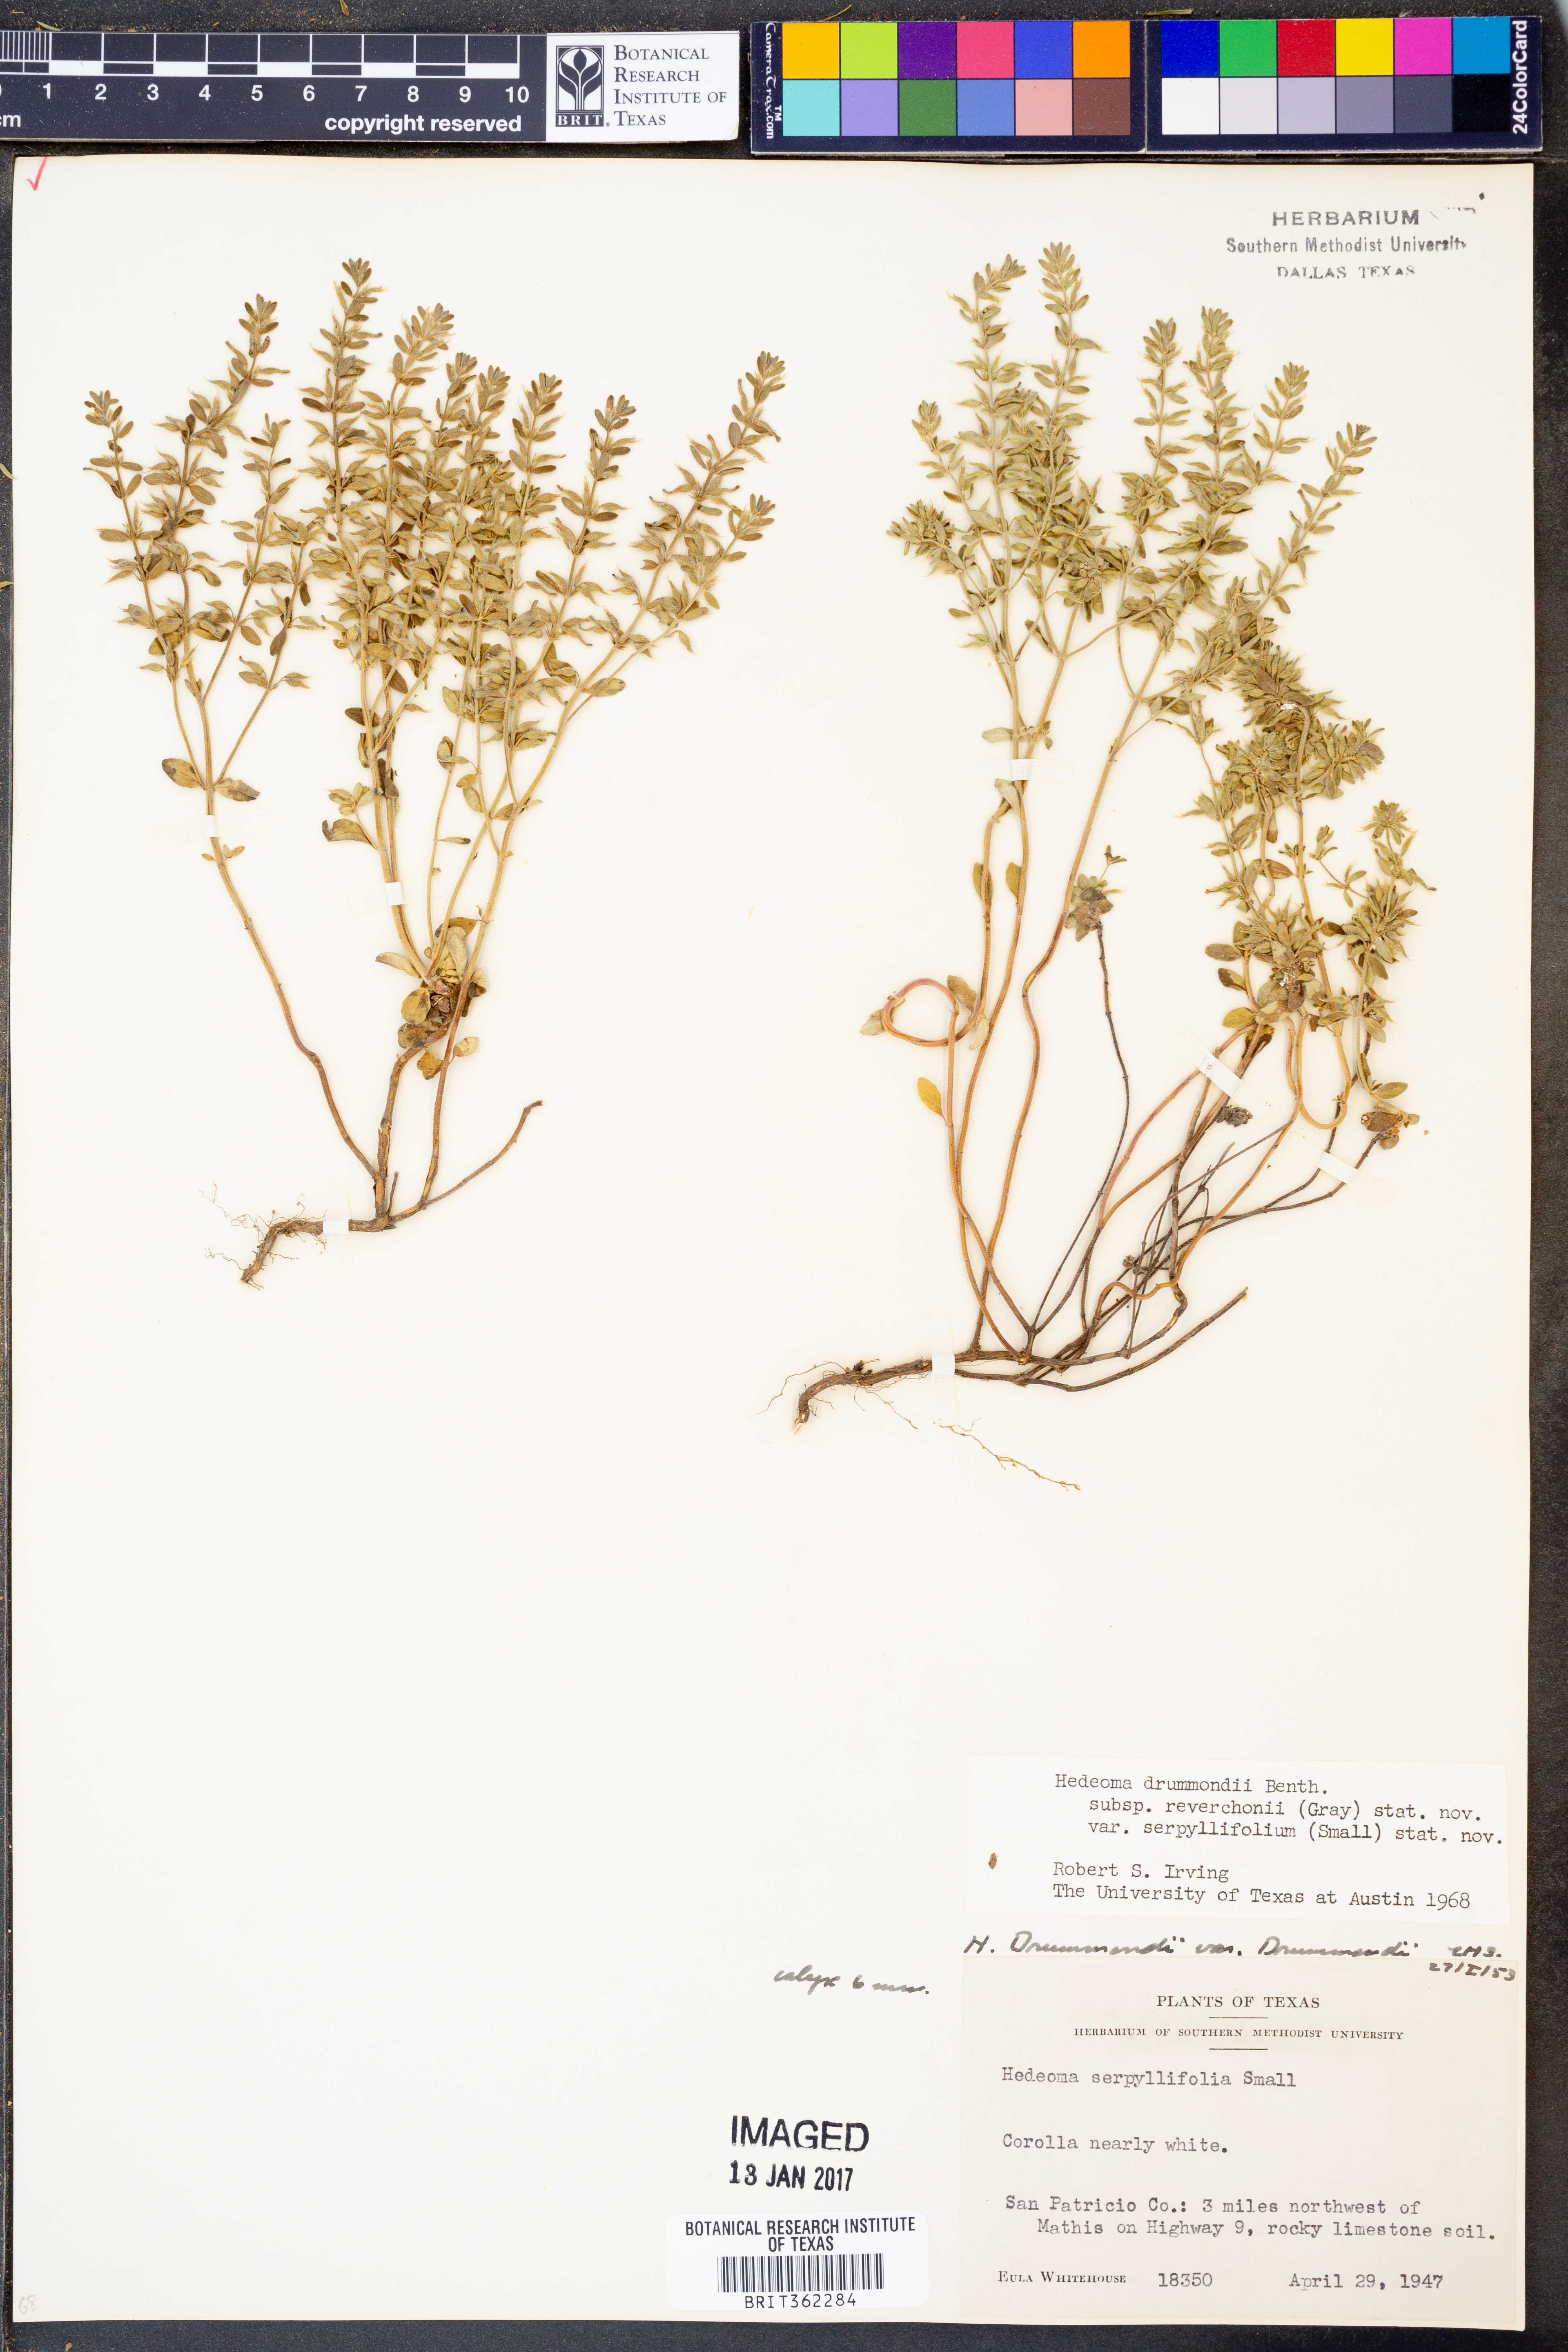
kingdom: Plantae
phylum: Tracheophyta
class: Magnoliopsida
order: Lamiales
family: Lamiaceae
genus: Hedeoma
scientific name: Hedeoma reverchonii
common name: Reverchon's false penny-royal
